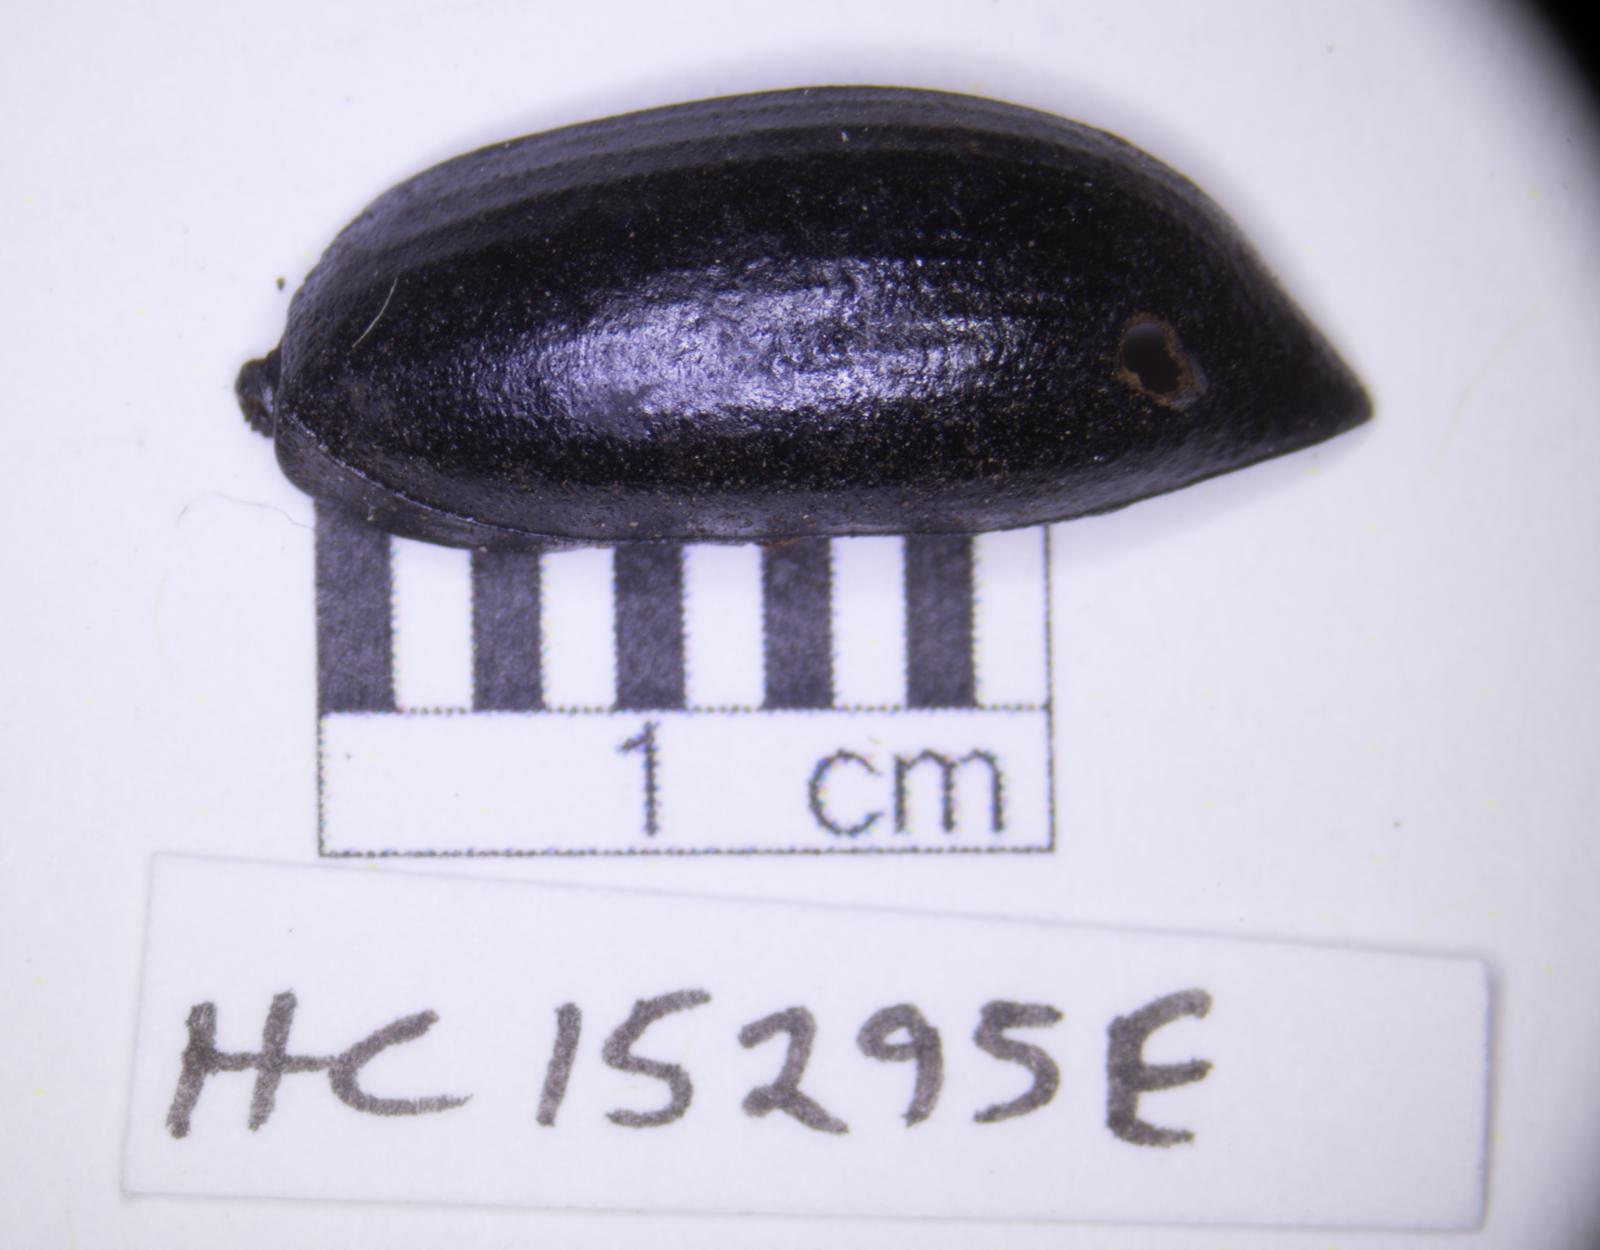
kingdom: Animalia
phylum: Arthropoda
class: Insecta
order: Coleoptera
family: Tenebrionidae
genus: Eleodes
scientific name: Eleodes acuticauda
